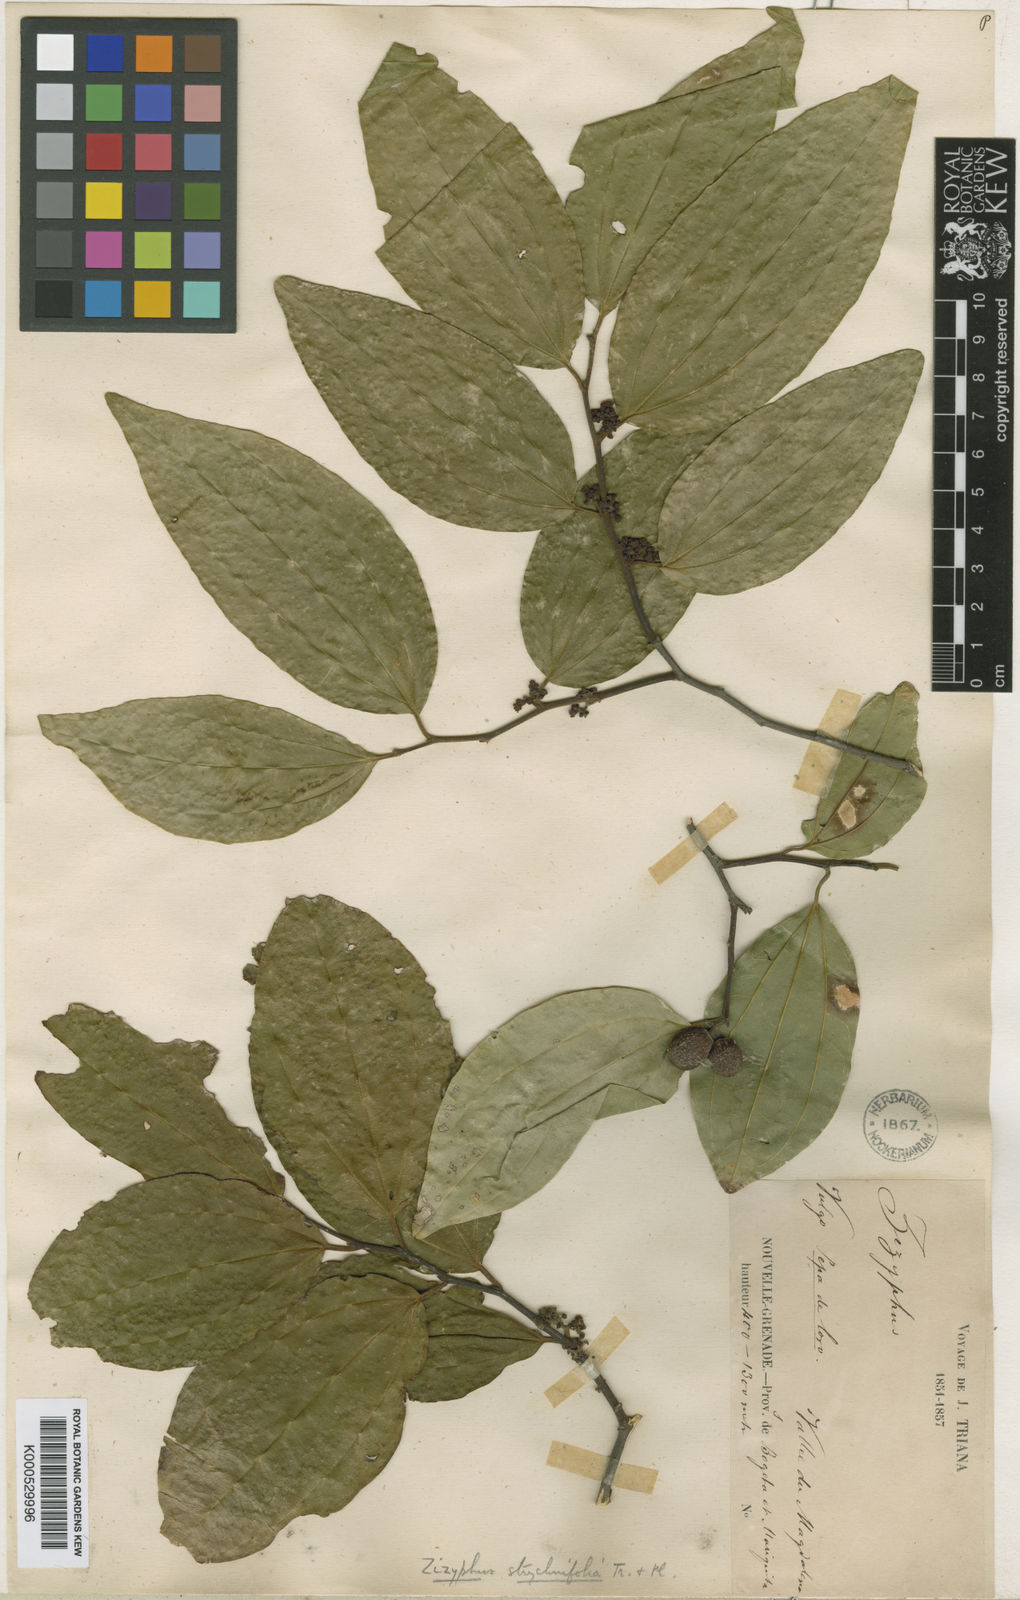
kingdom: Plantae
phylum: Tracheophyta
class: Magnoliopsida
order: Rosales
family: Rhamnaceae
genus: Sarcomphalus
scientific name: Sarcomphalus strychnifolius
